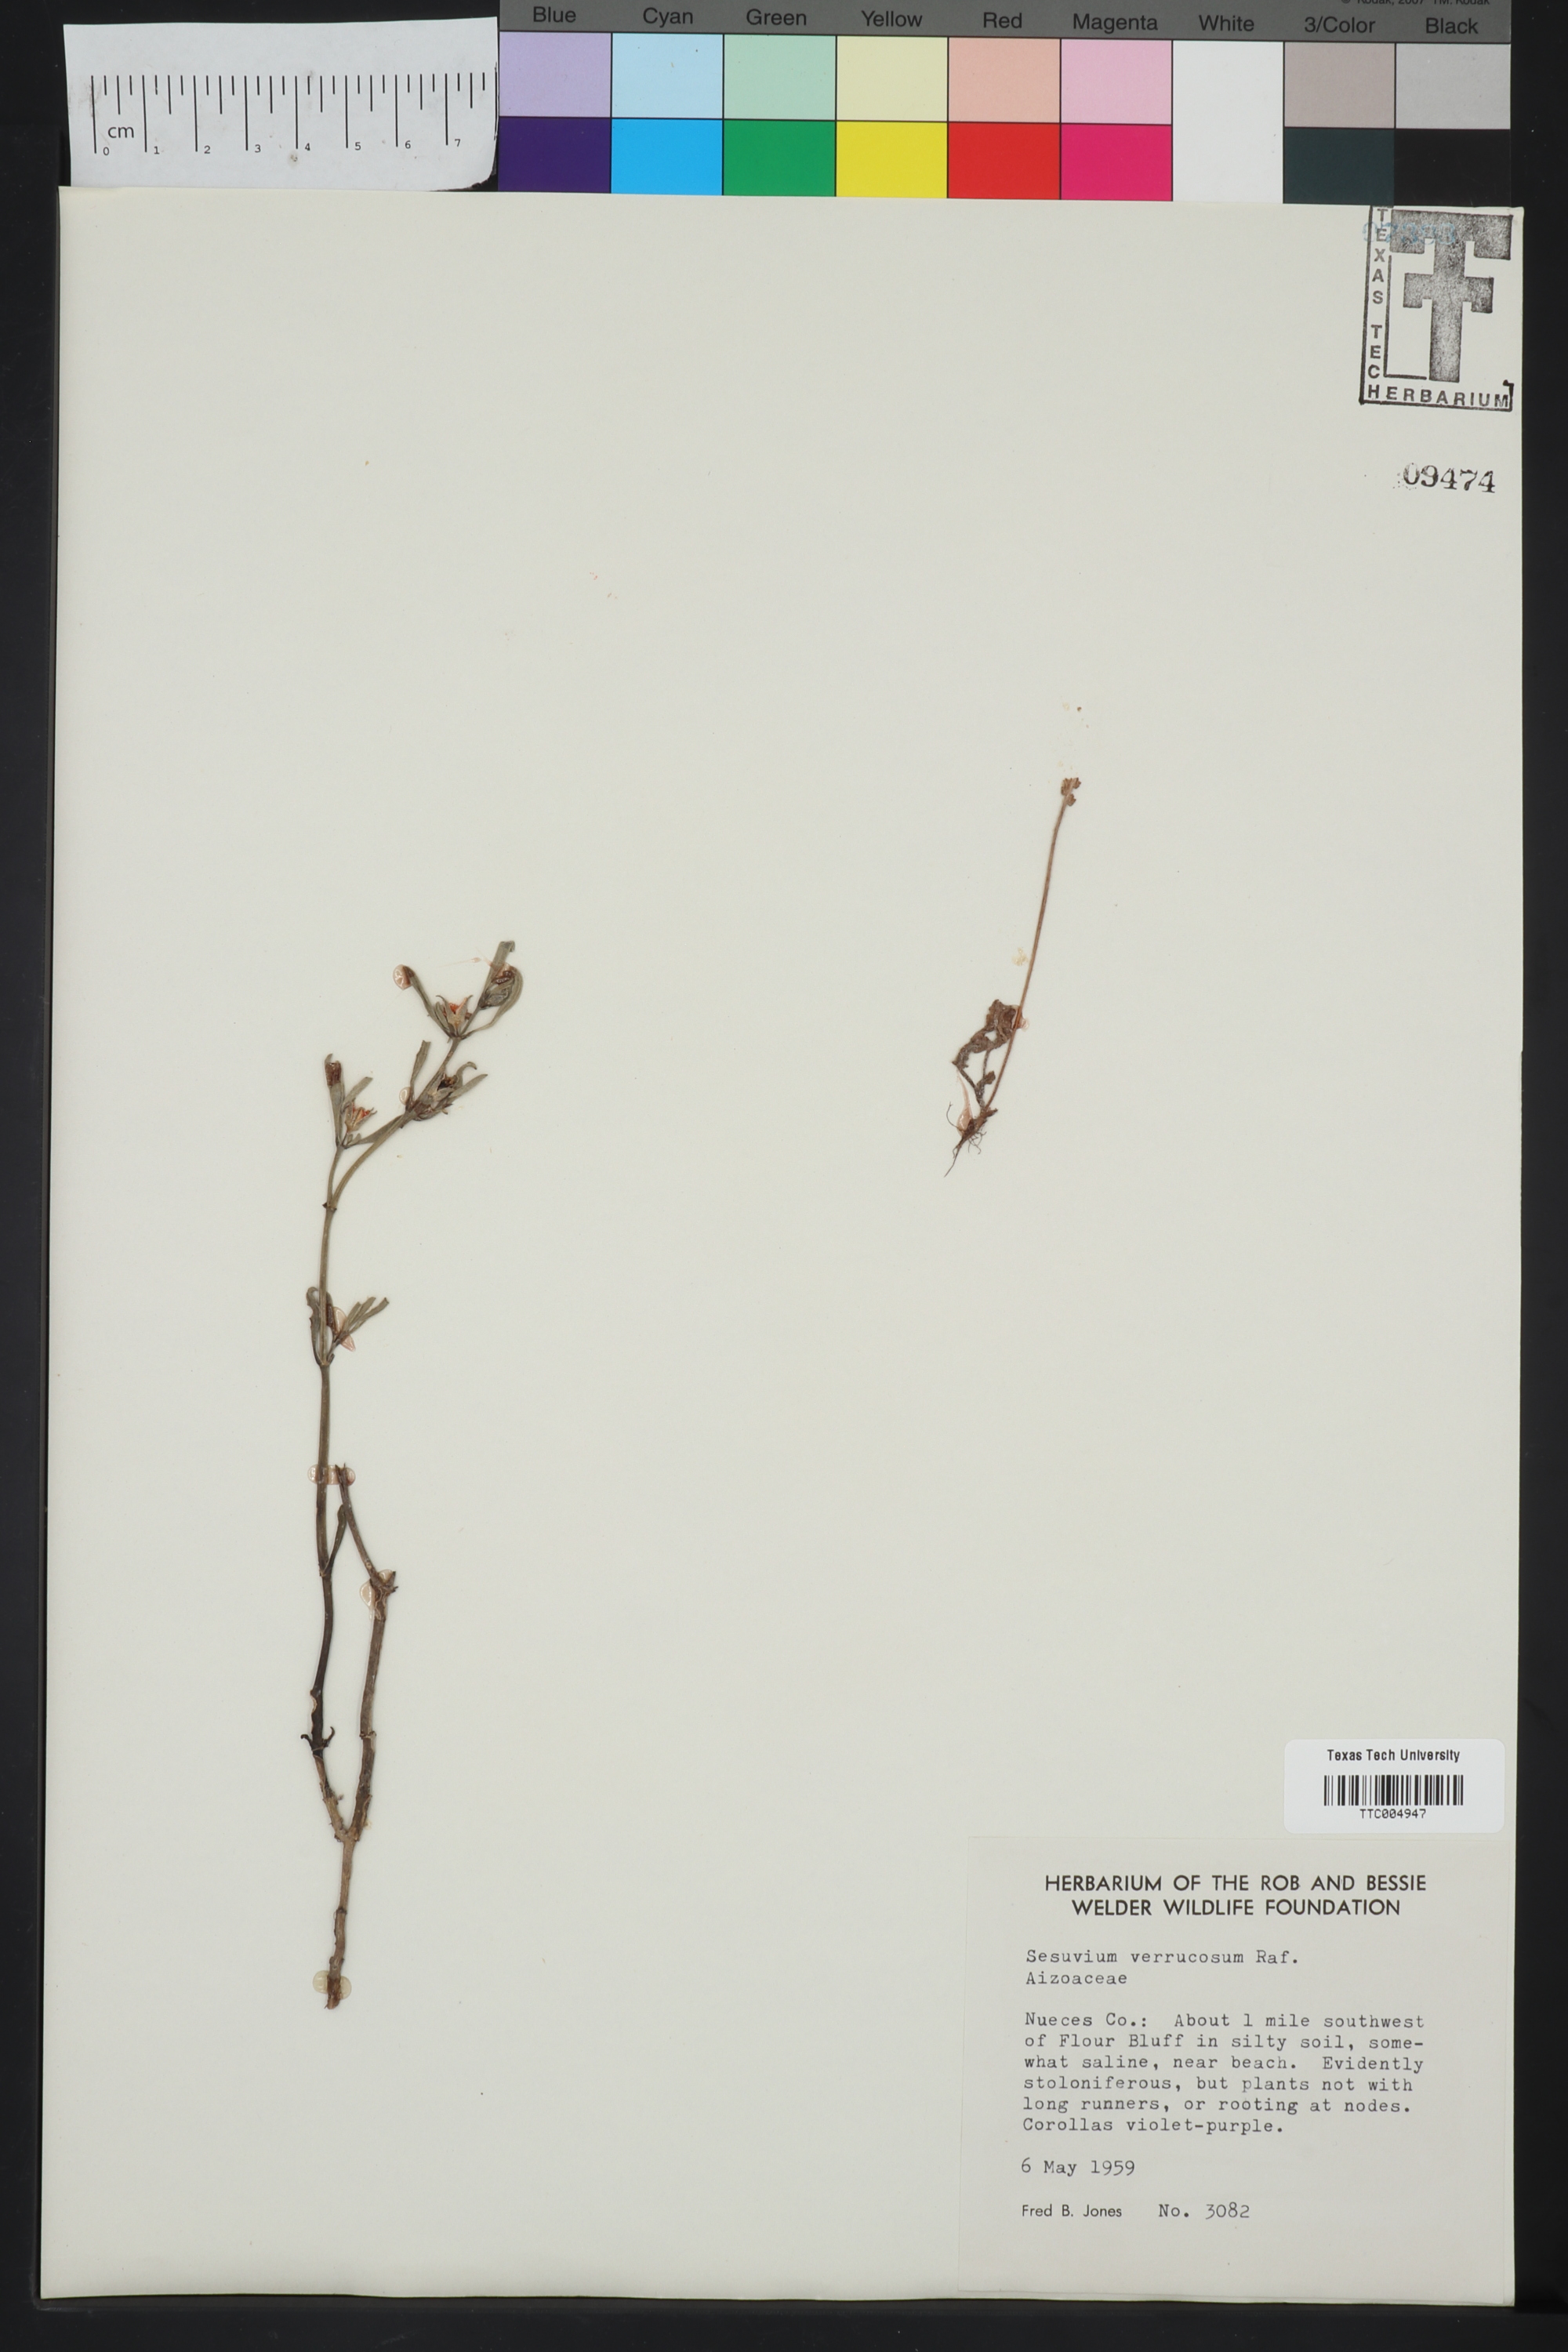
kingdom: Plantae
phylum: Tracheophyta
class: Magnoliopsida
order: Caryophyllales
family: Aizoaceae
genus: Sesuvium
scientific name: Sesuvium revolutifolium
